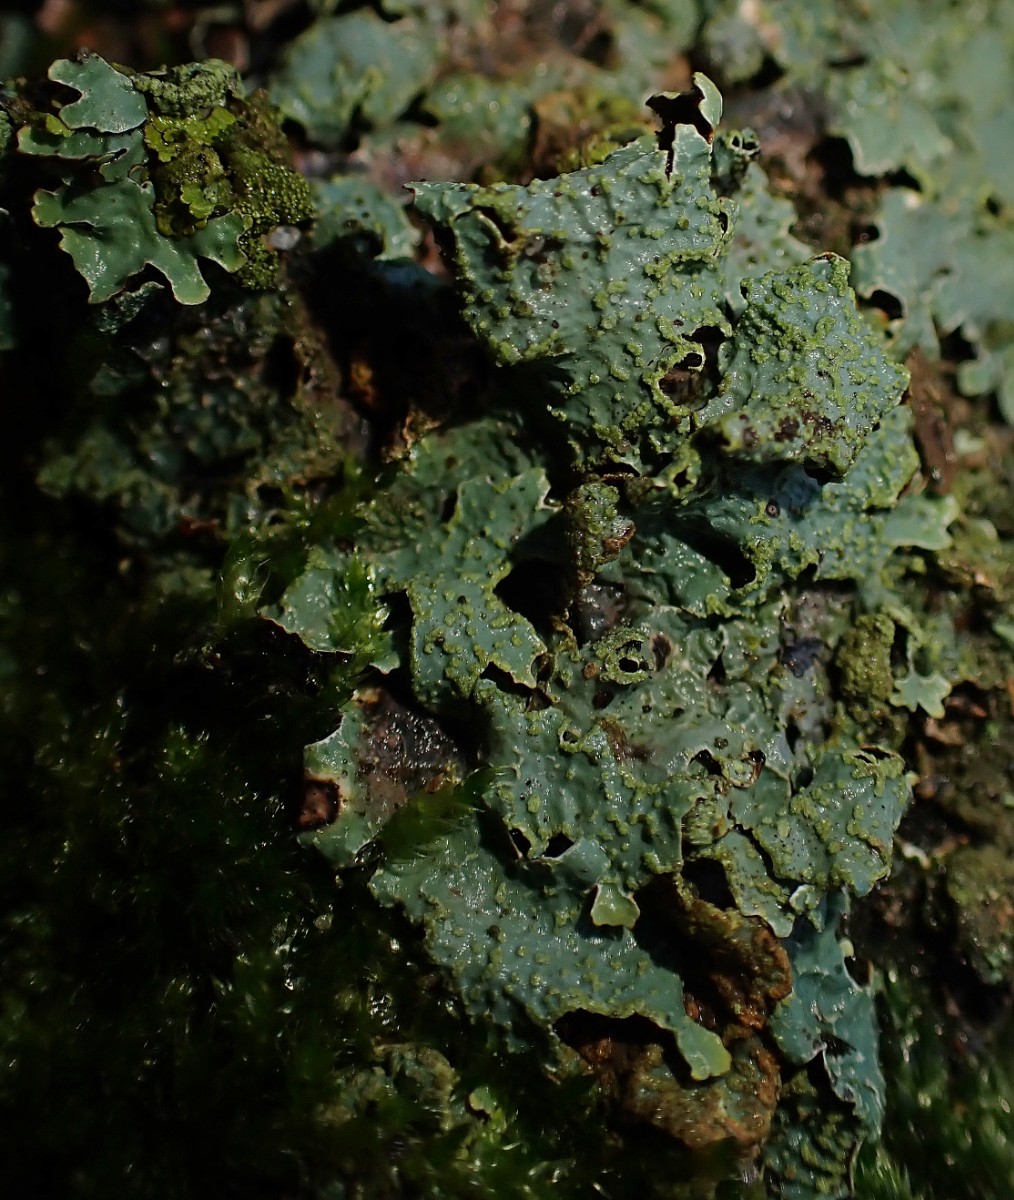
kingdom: Fungi
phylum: Ascomycota
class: Lecanoromycetes
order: Lecanorales
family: Parmeliaceae
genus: Parmelia
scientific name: Parmelia sulcata
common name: rynket skållav
